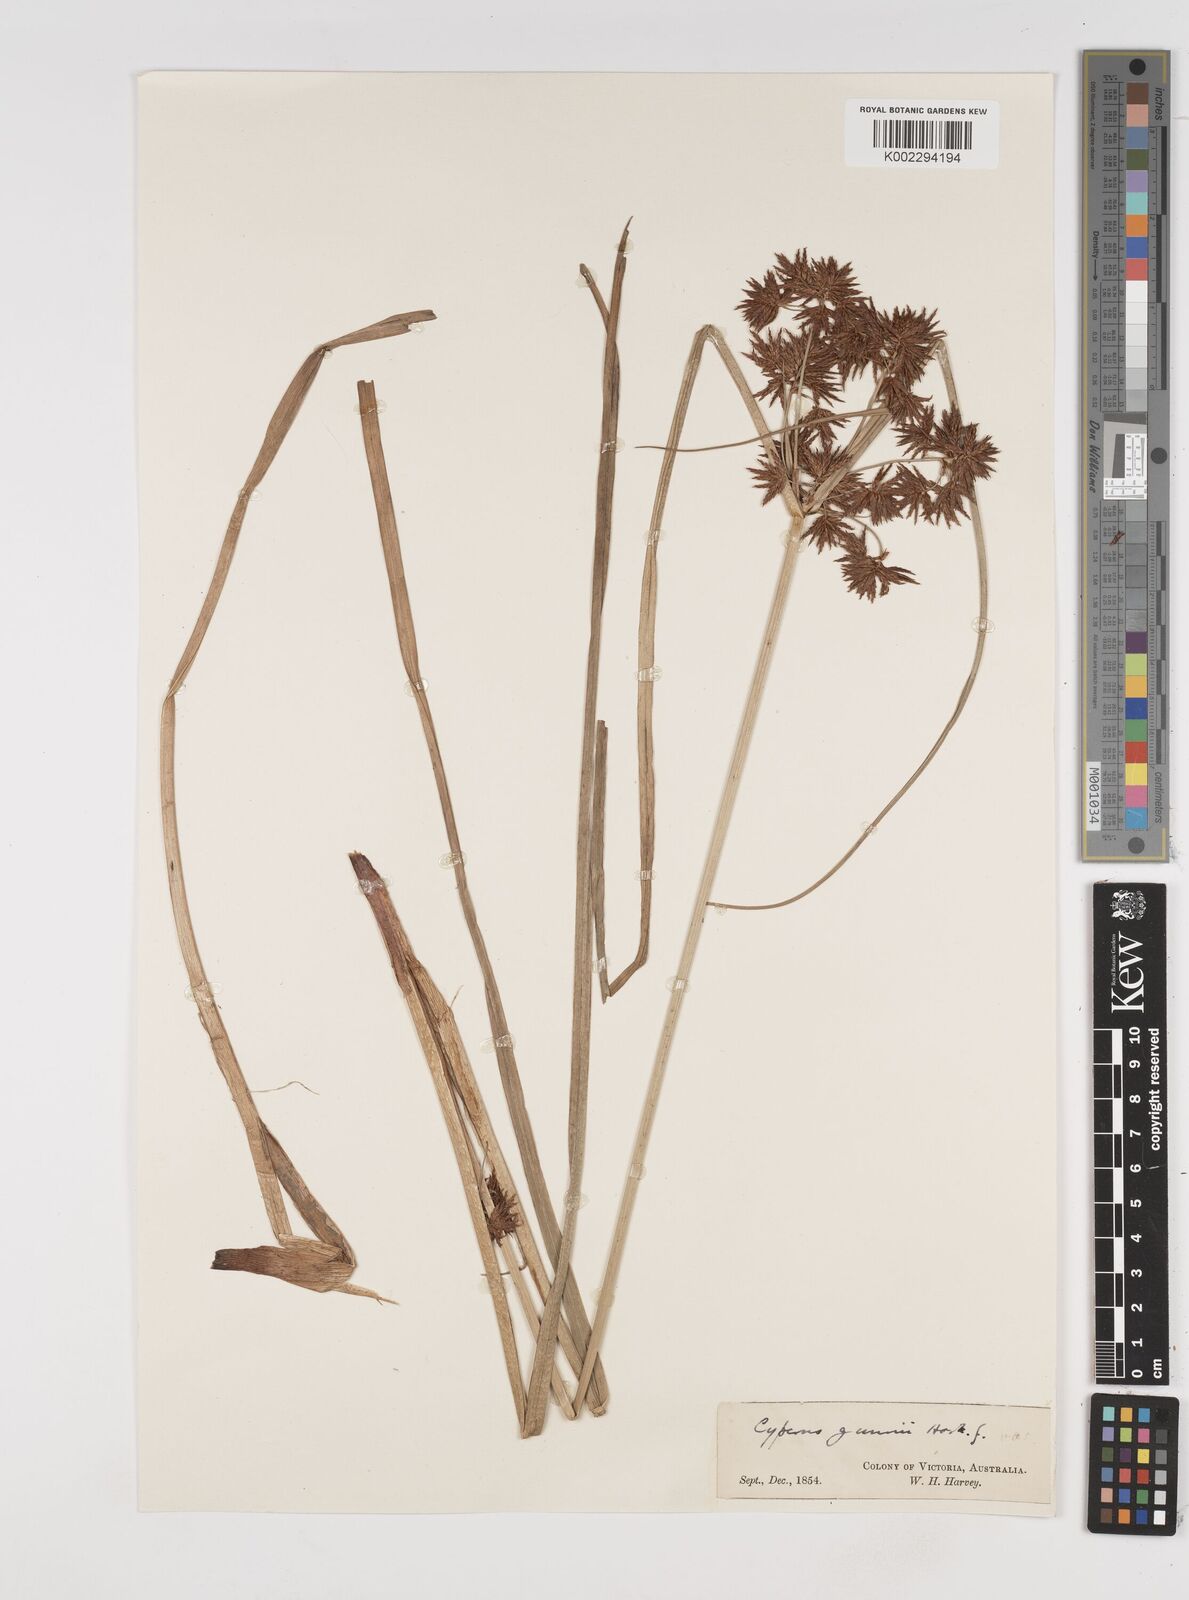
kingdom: Plantae
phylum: Tracheophyta
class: Liliopsida
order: Poales
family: Cyperaceae
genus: Cyperus
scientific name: Cyperus gunnii
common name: Flecked flat-sedge
